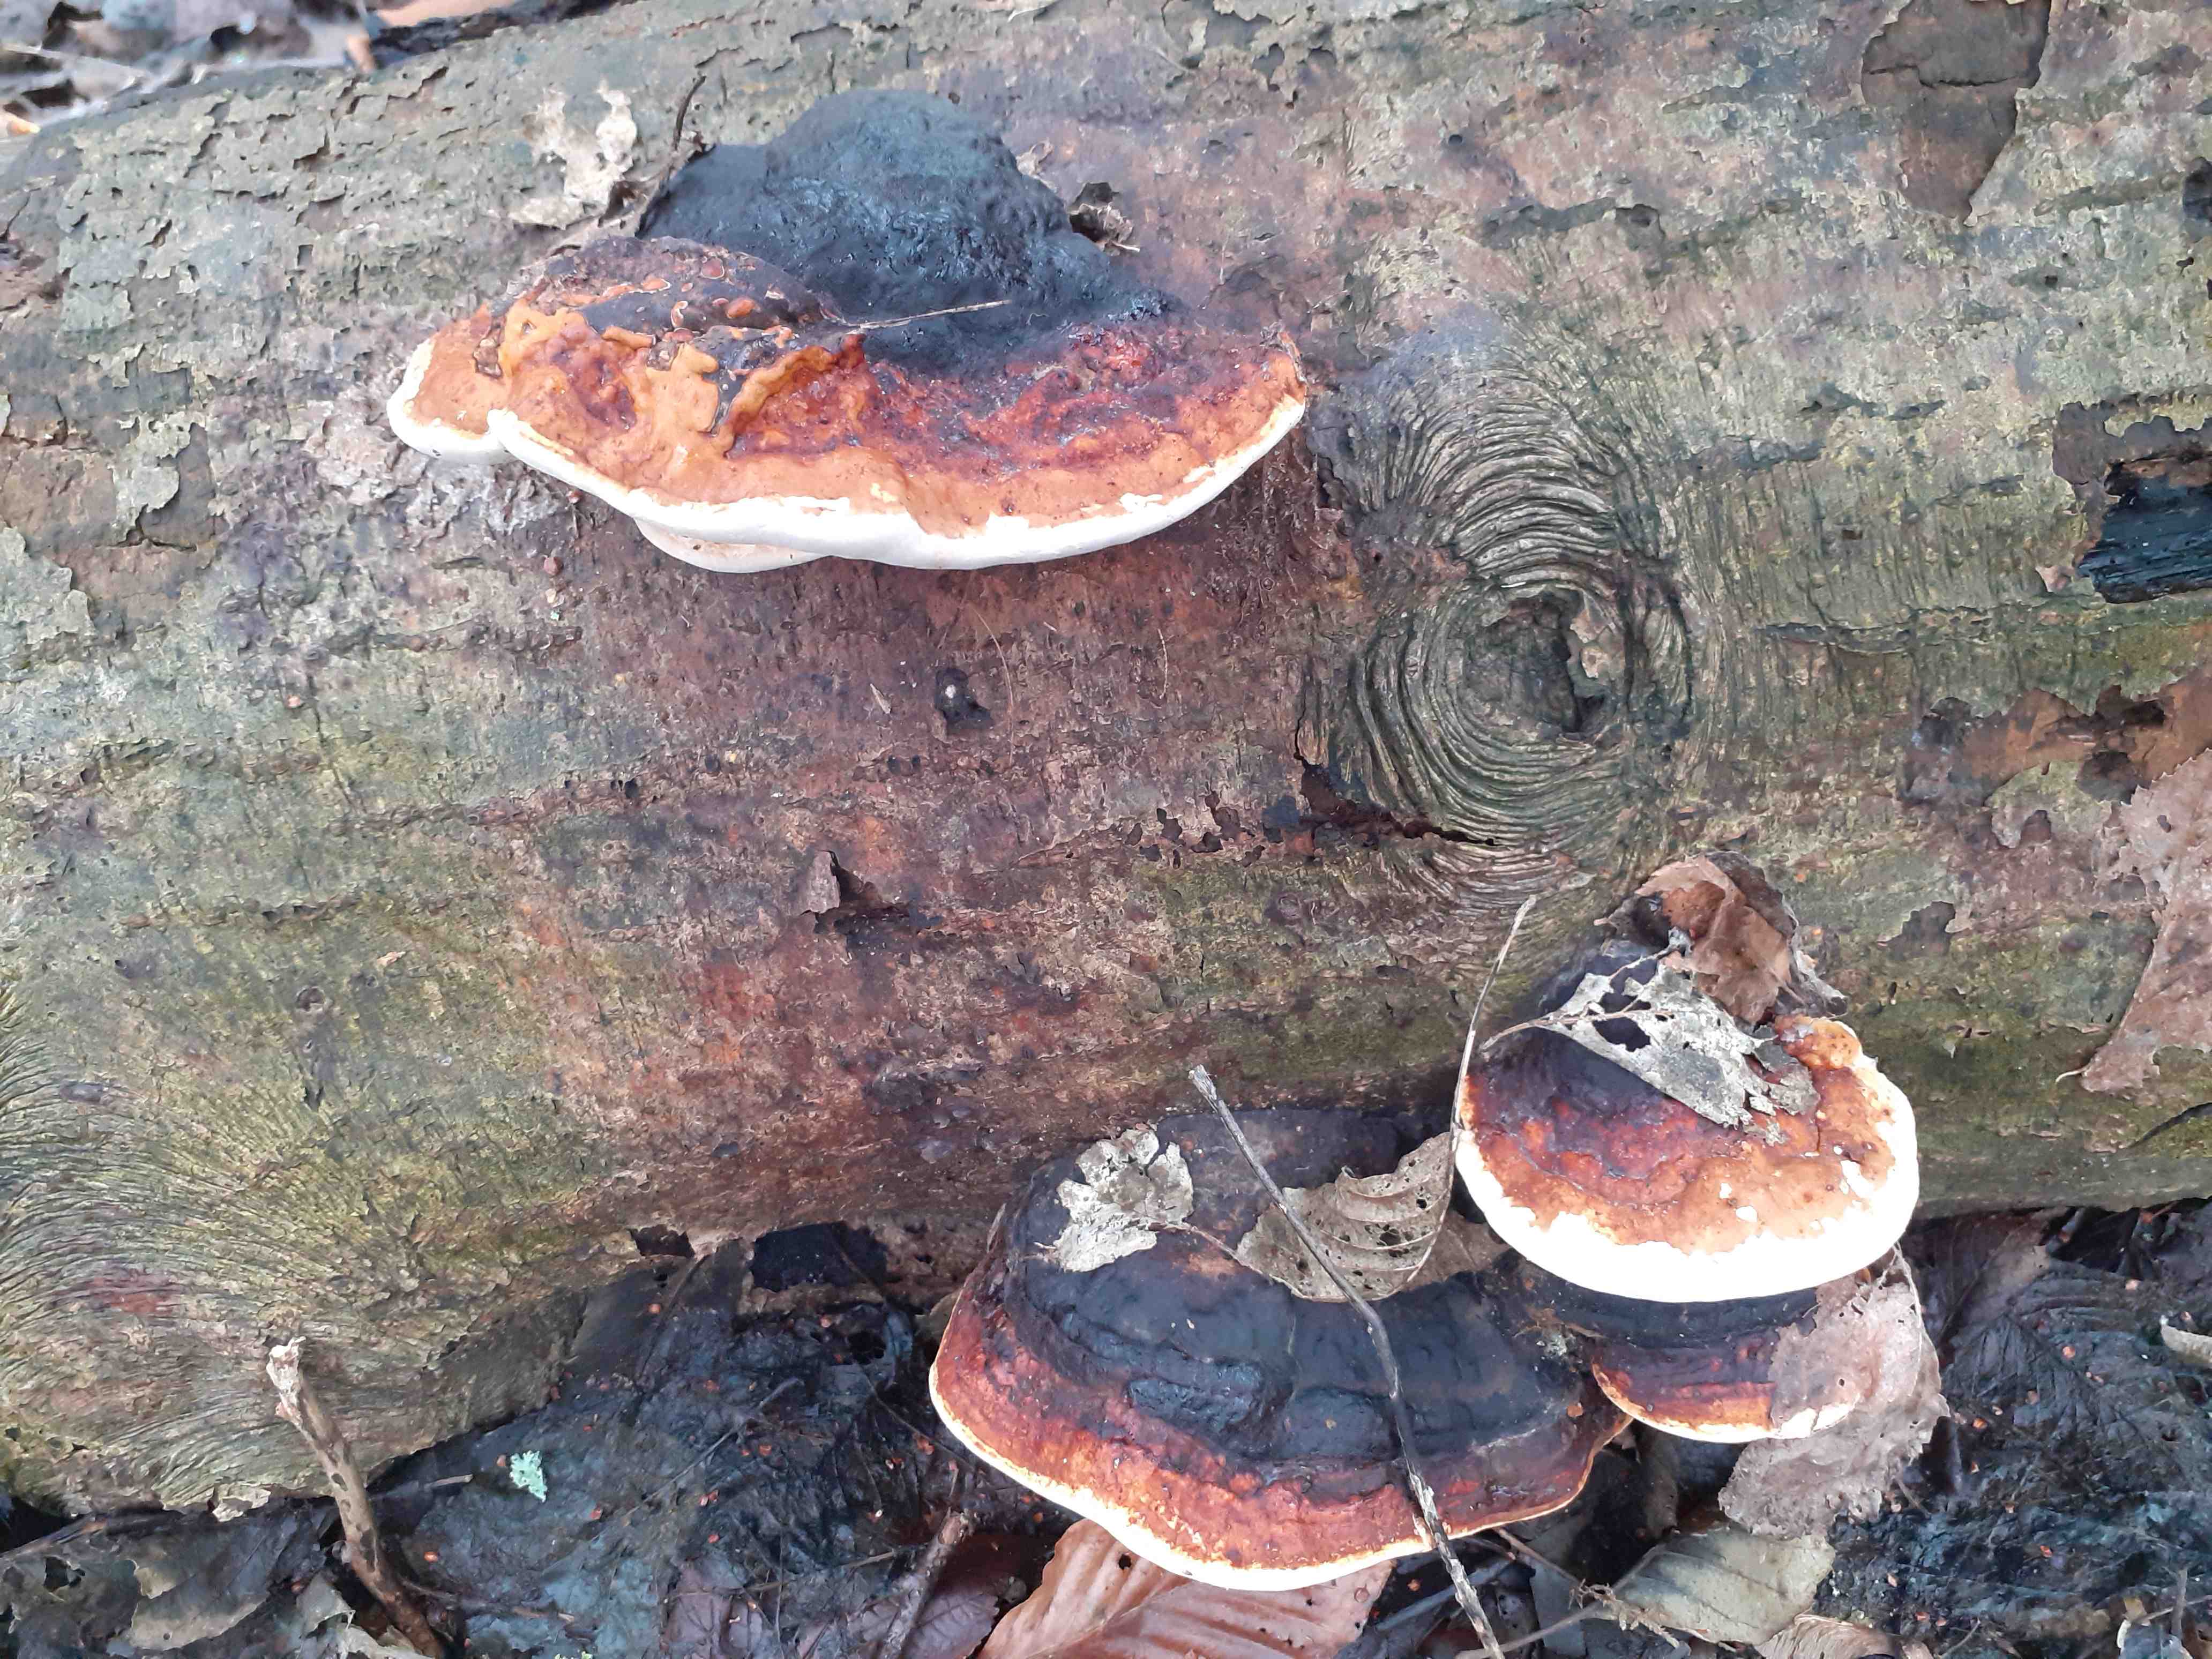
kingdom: Fungi
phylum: Basidiomycota
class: Agaricomycetes
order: Polyporales
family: Fomitopsidaceae
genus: Fomitopsis
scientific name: Fomitopsis pinicola
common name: randbæltet hovporesvamp
